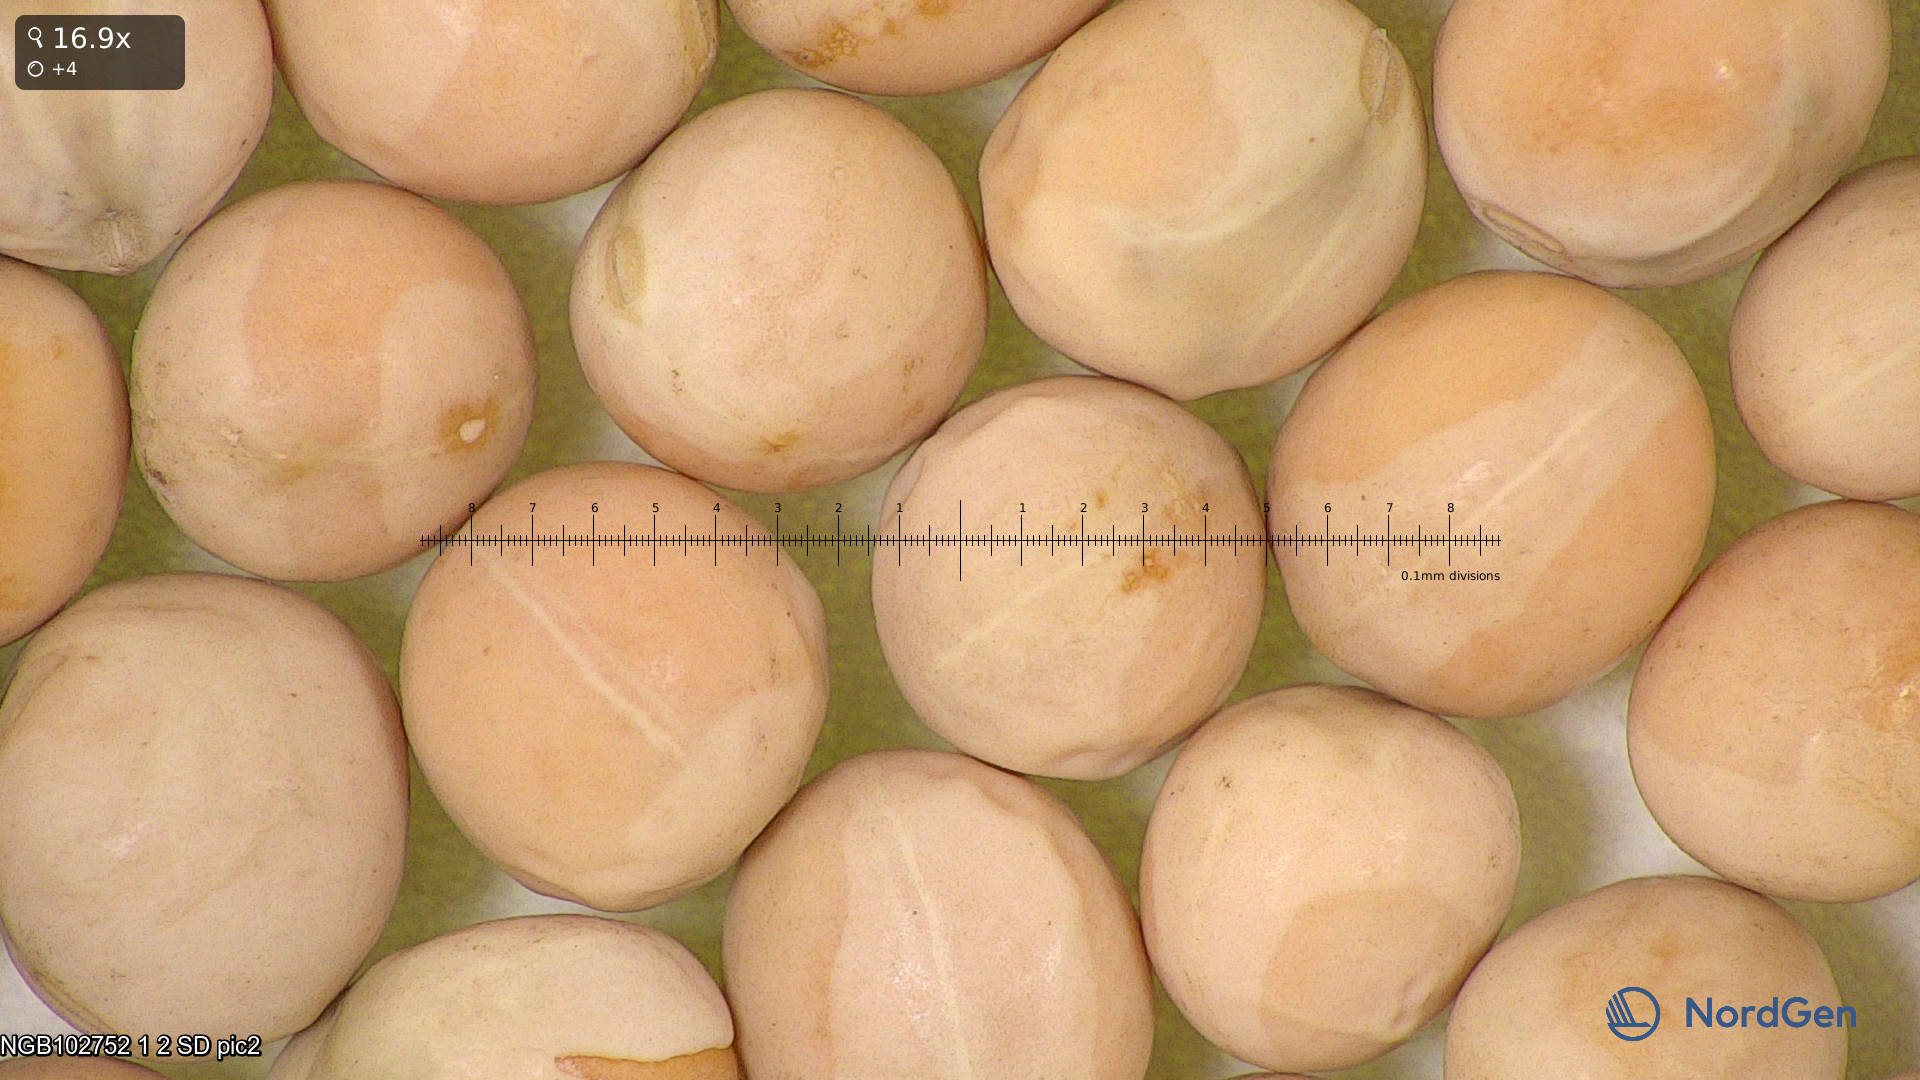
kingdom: Plantae
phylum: Tracheophyta
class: Magnoliopsida
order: Fabales
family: Fabaceae
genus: Lathyrus
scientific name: Lathyrus oleraceus
